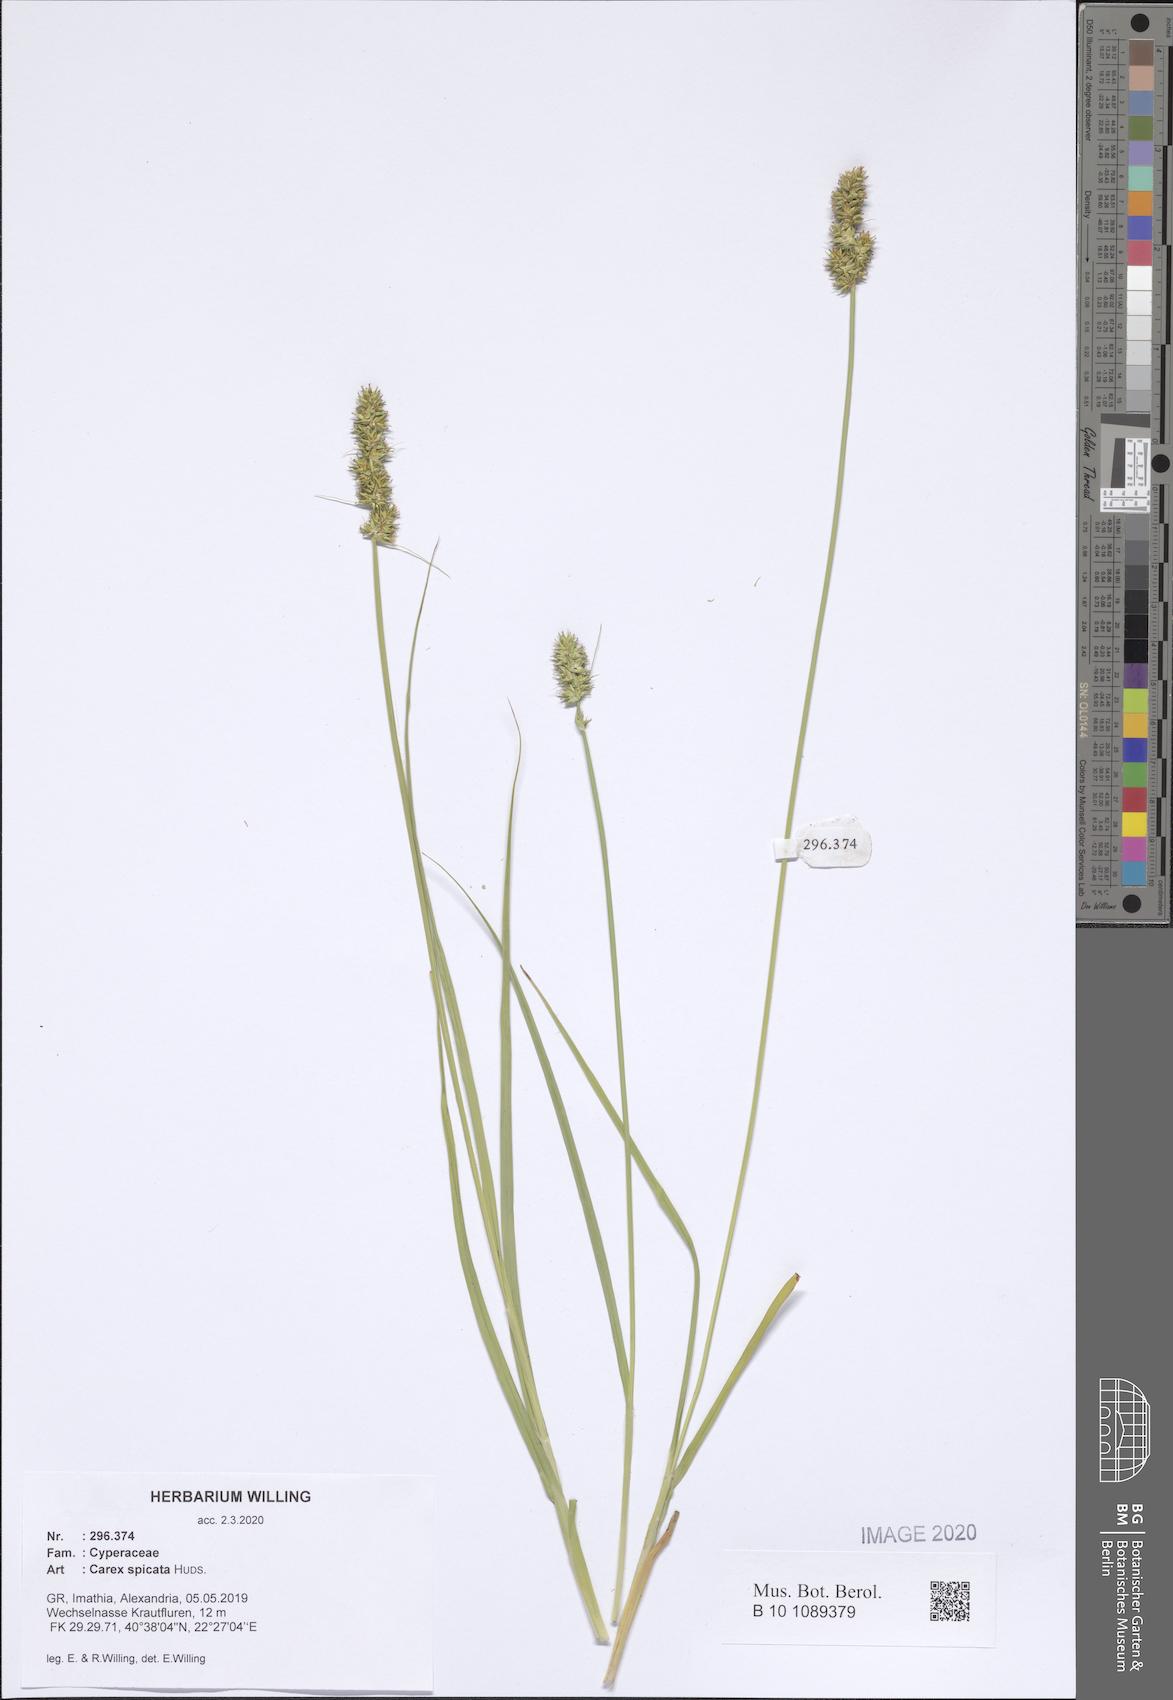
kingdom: Plantae
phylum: Tracheophyta
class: Liliopsida
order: Poales
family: Cyperaceae
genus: Carex
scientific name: Carex spicata
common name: Spiked sedge
